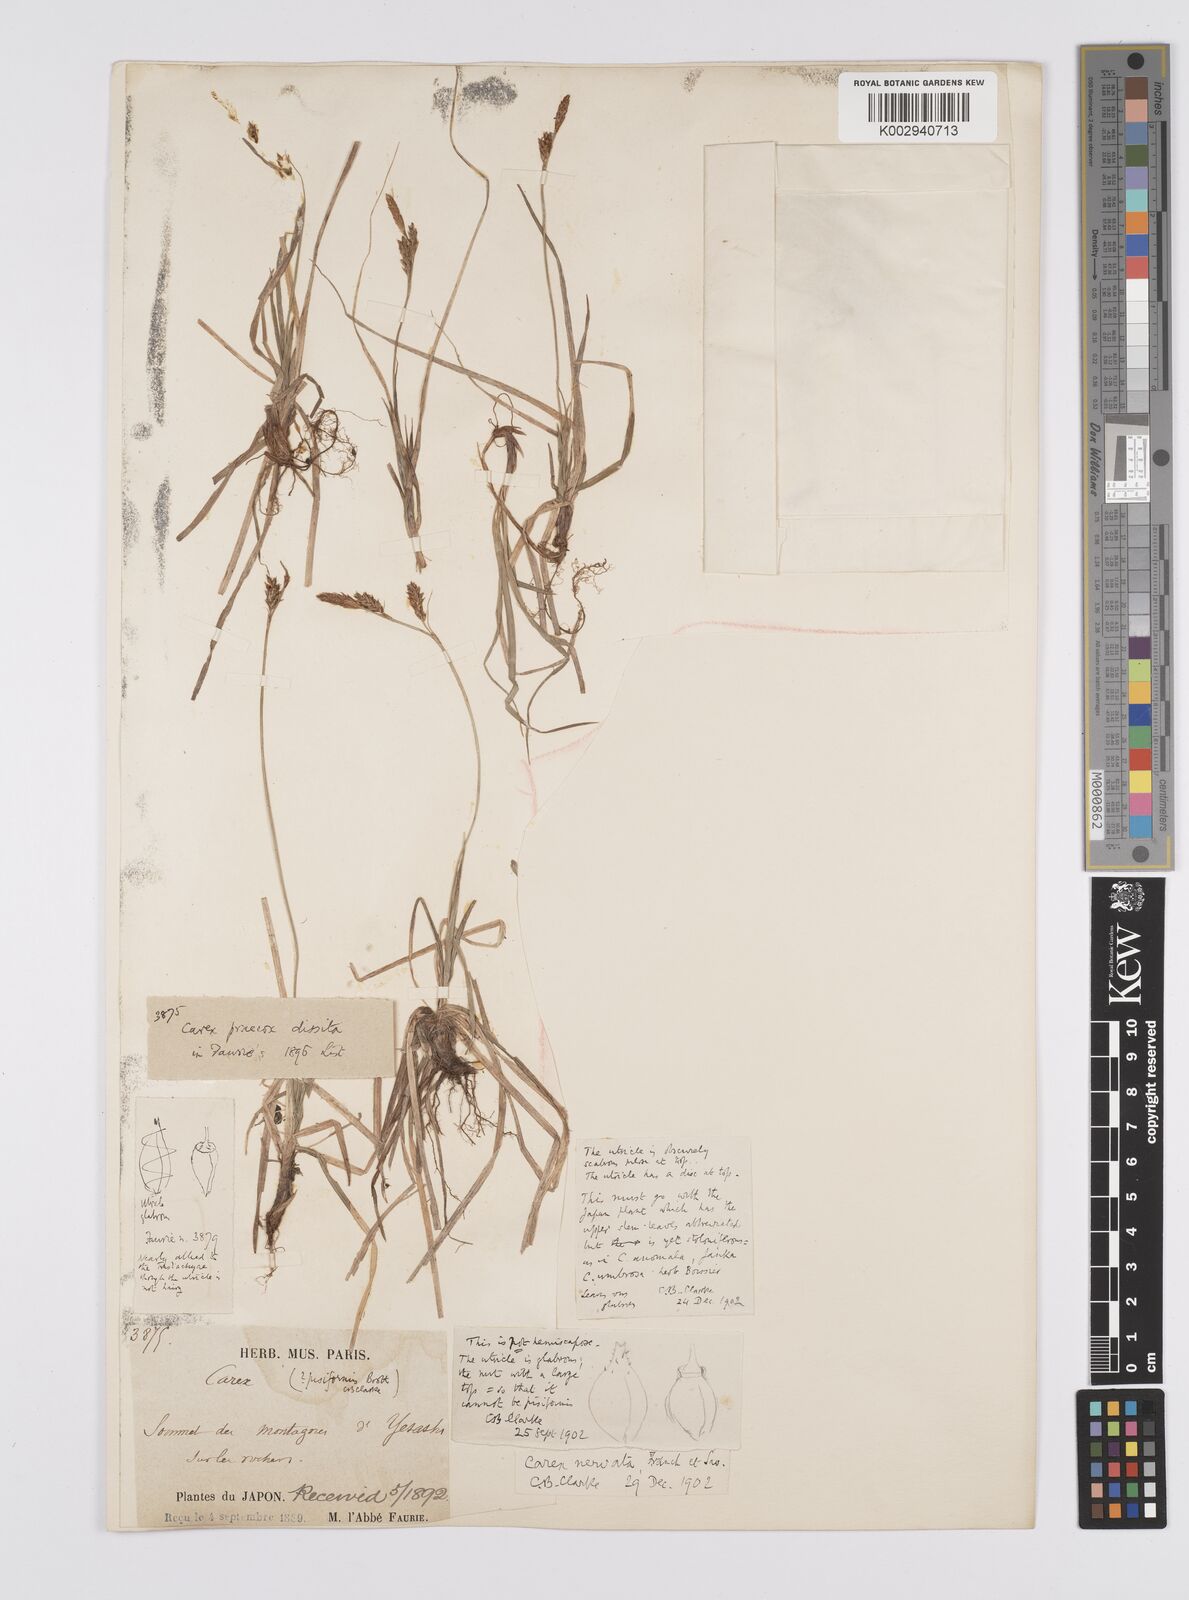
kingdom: Plantae
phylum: Tracheophyta
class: Liliopsida
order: Poales
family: Cyperaceae
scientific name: Cyperaceae
